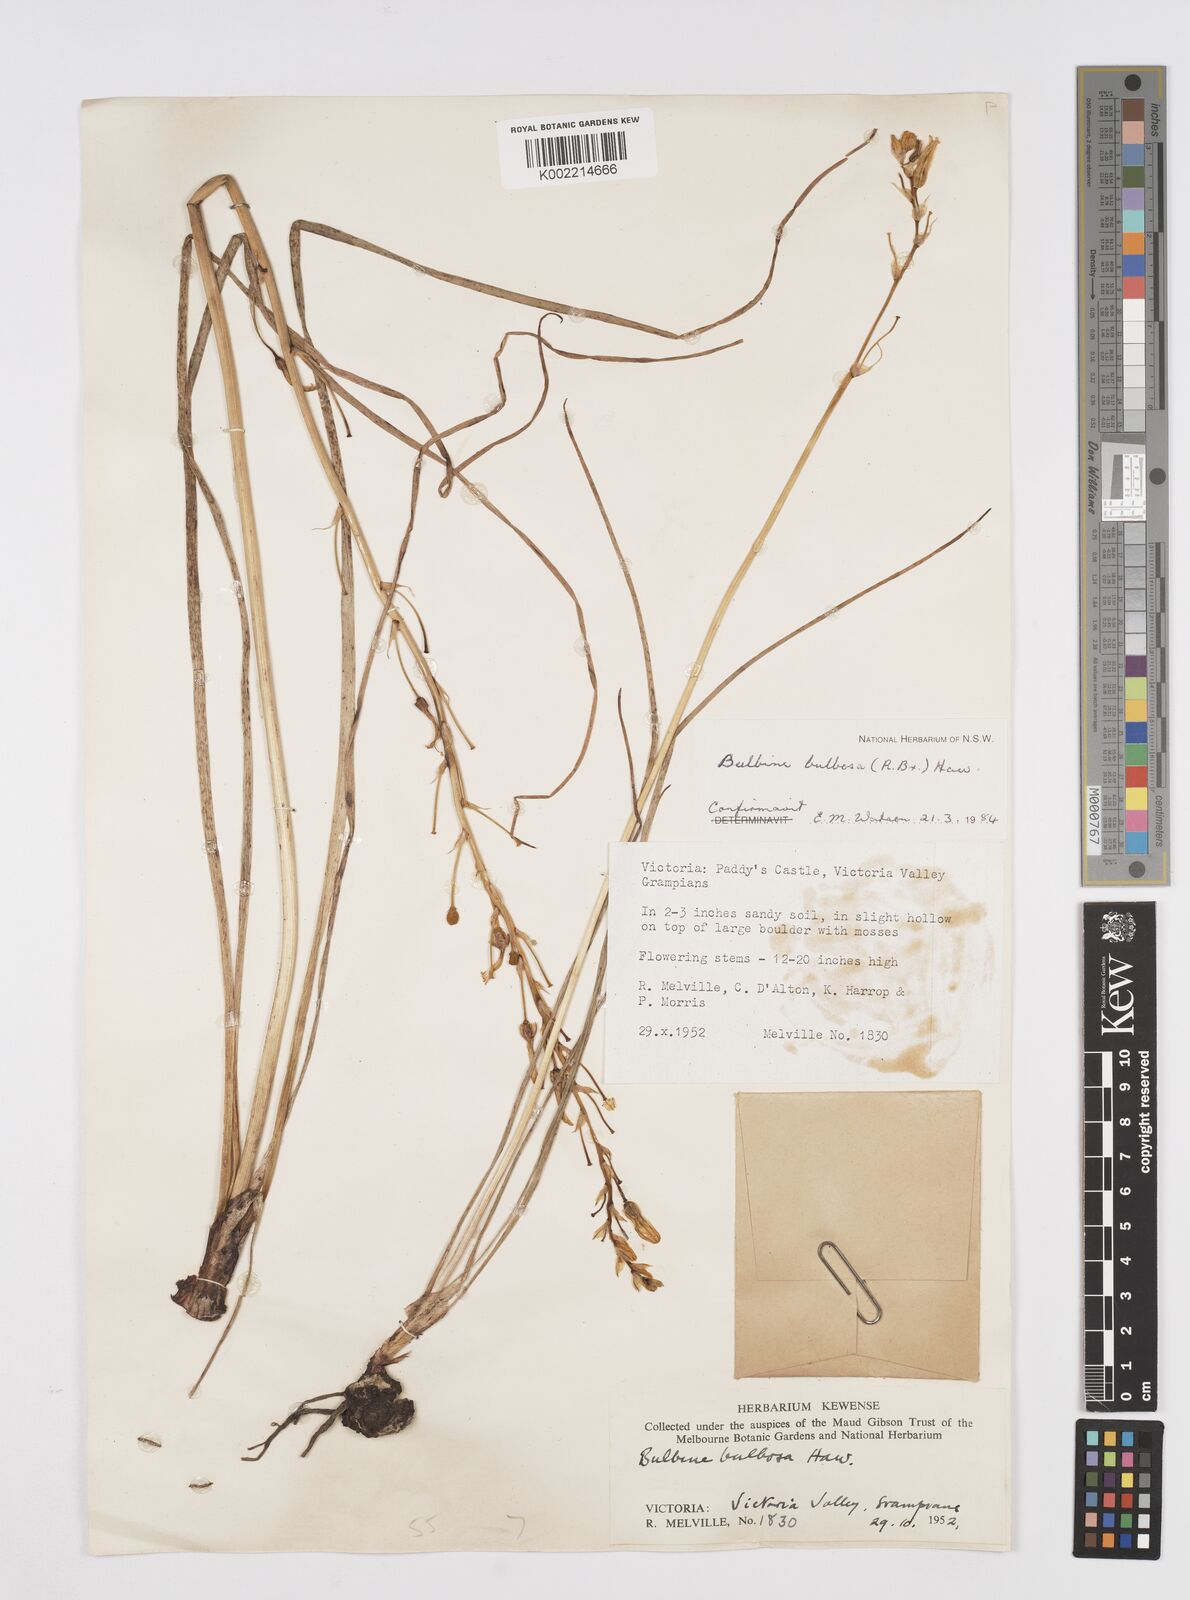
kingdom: Plantae
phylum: Tracheophyta
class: Liliopsida
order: Asparagales
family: Asphodelaceae
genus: Bulbine
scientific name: Bulbine bulbosa
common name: Golden-lily
